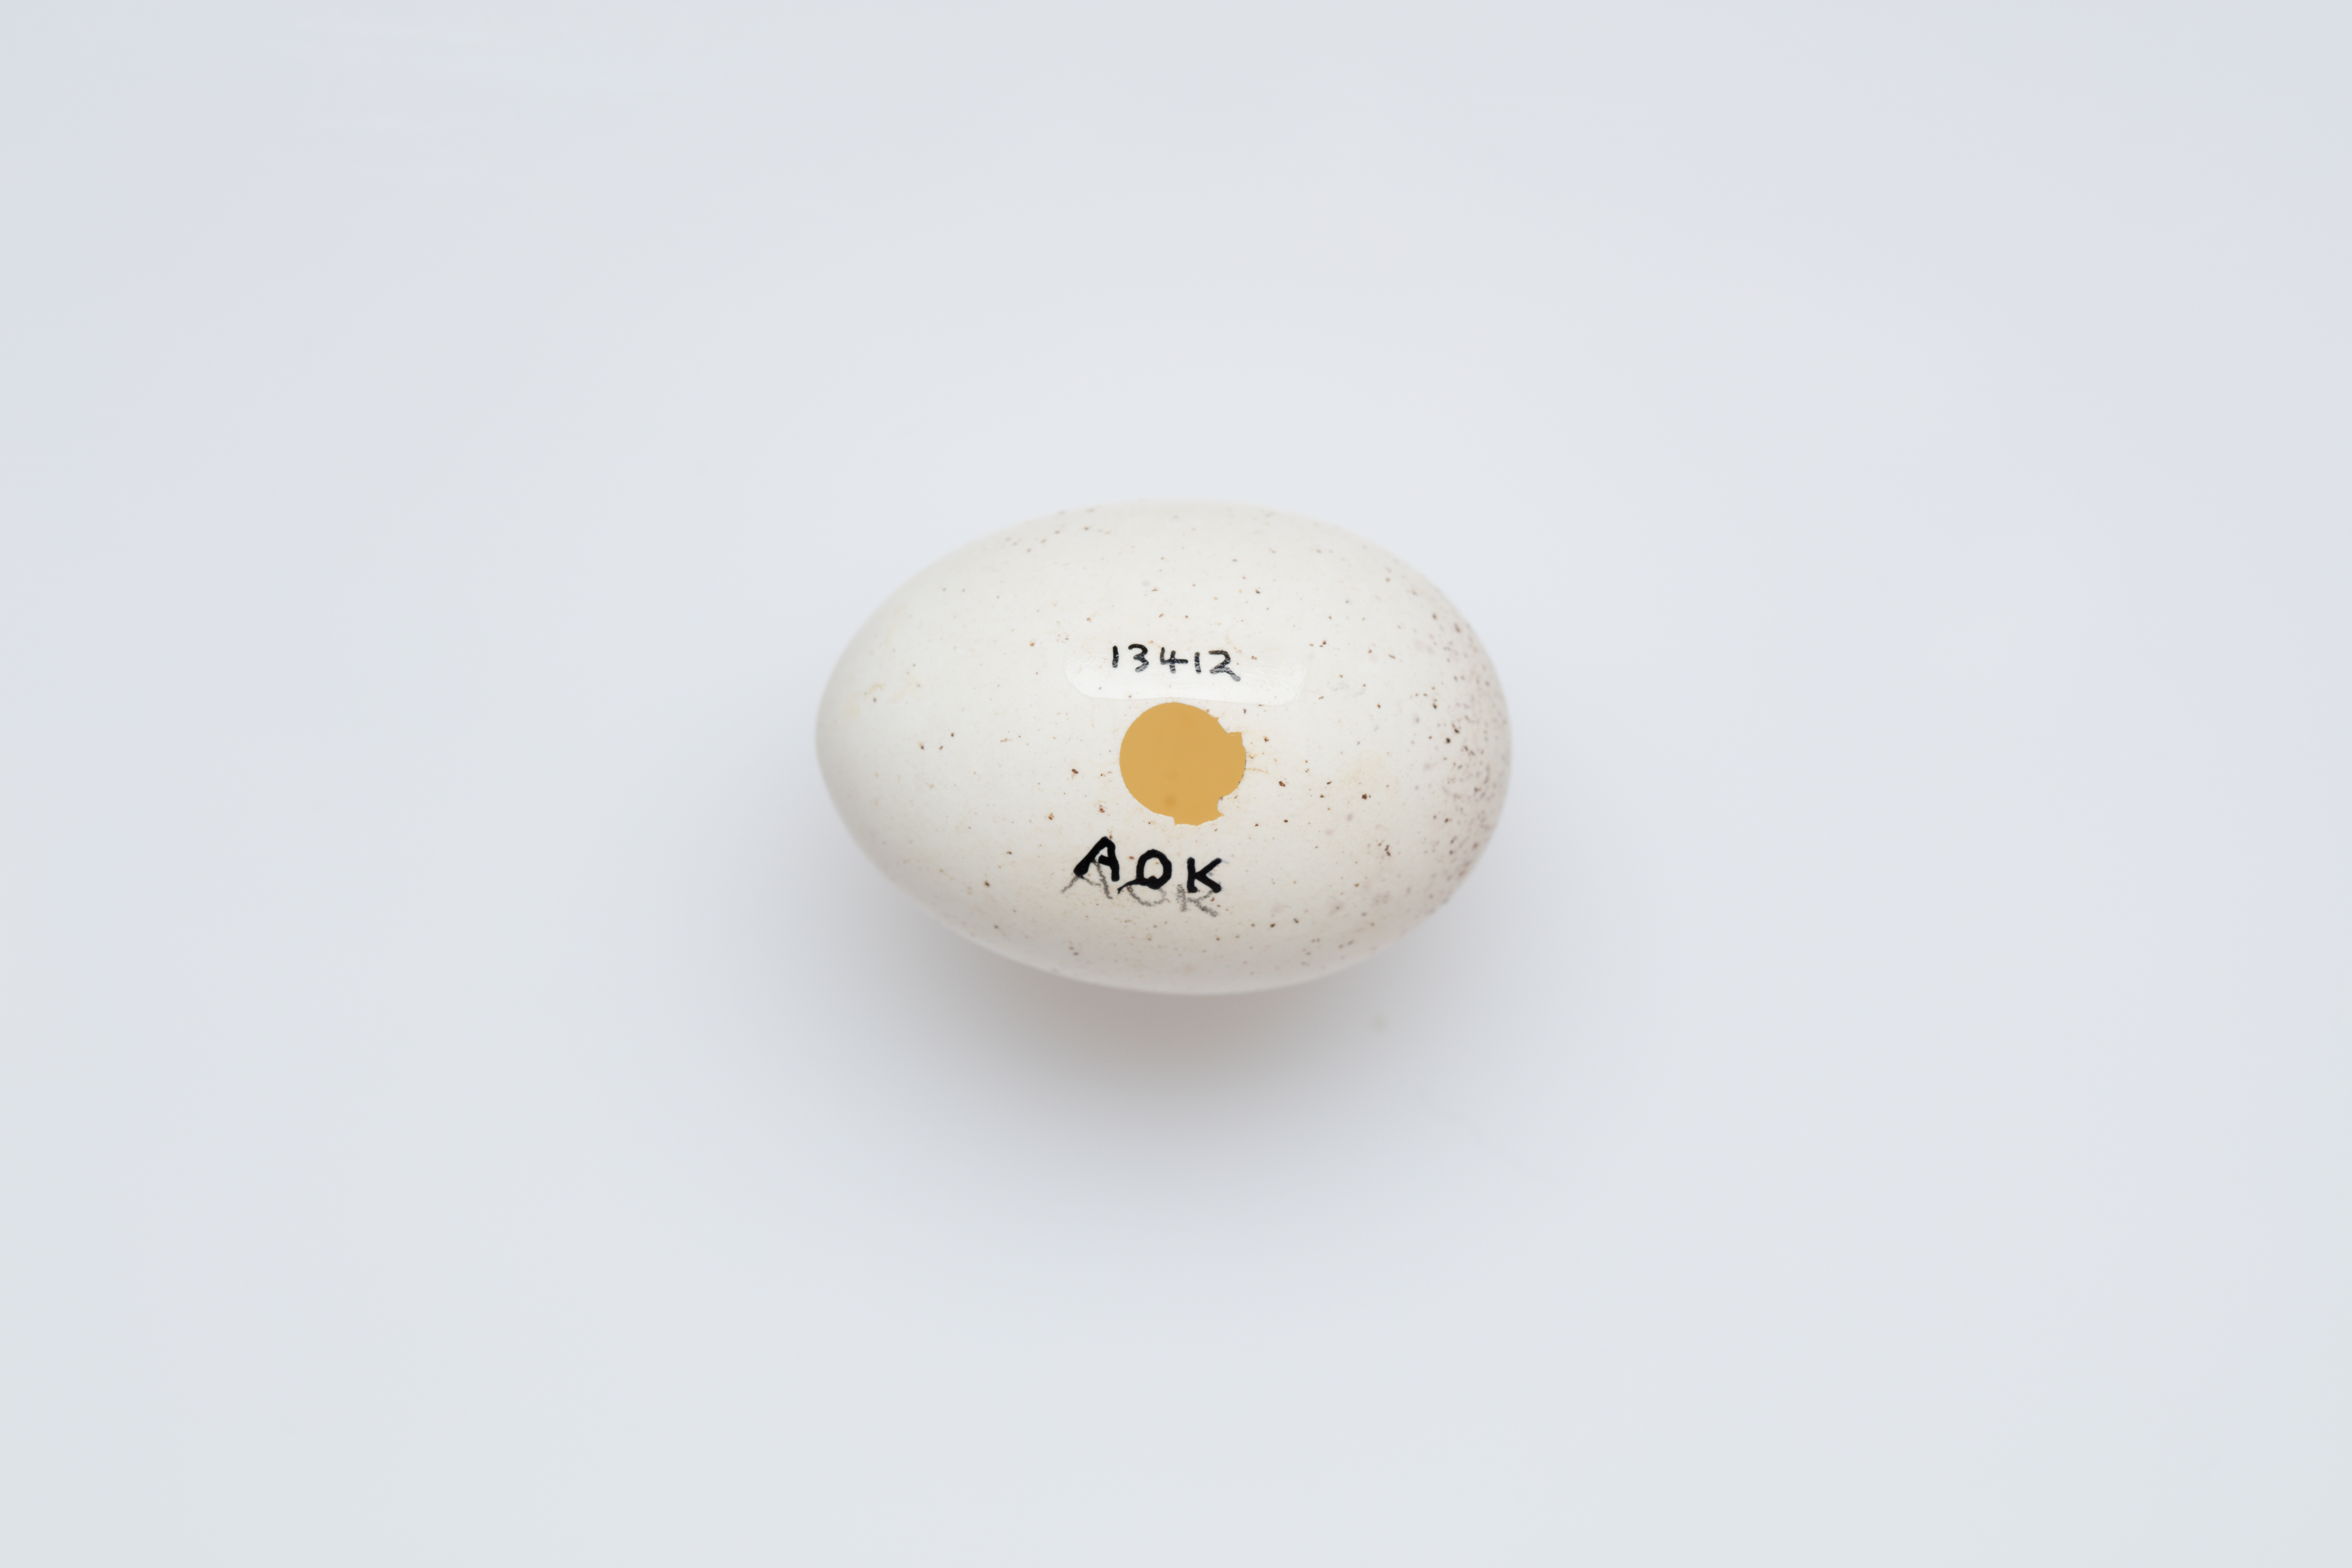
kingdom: Animalia
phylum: Chordata
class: Aves
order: Procellariiformes
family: Hydrobatidae
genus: Pelagodroma
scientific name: Pelagodroma marina
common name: White-faced storm-petrel
